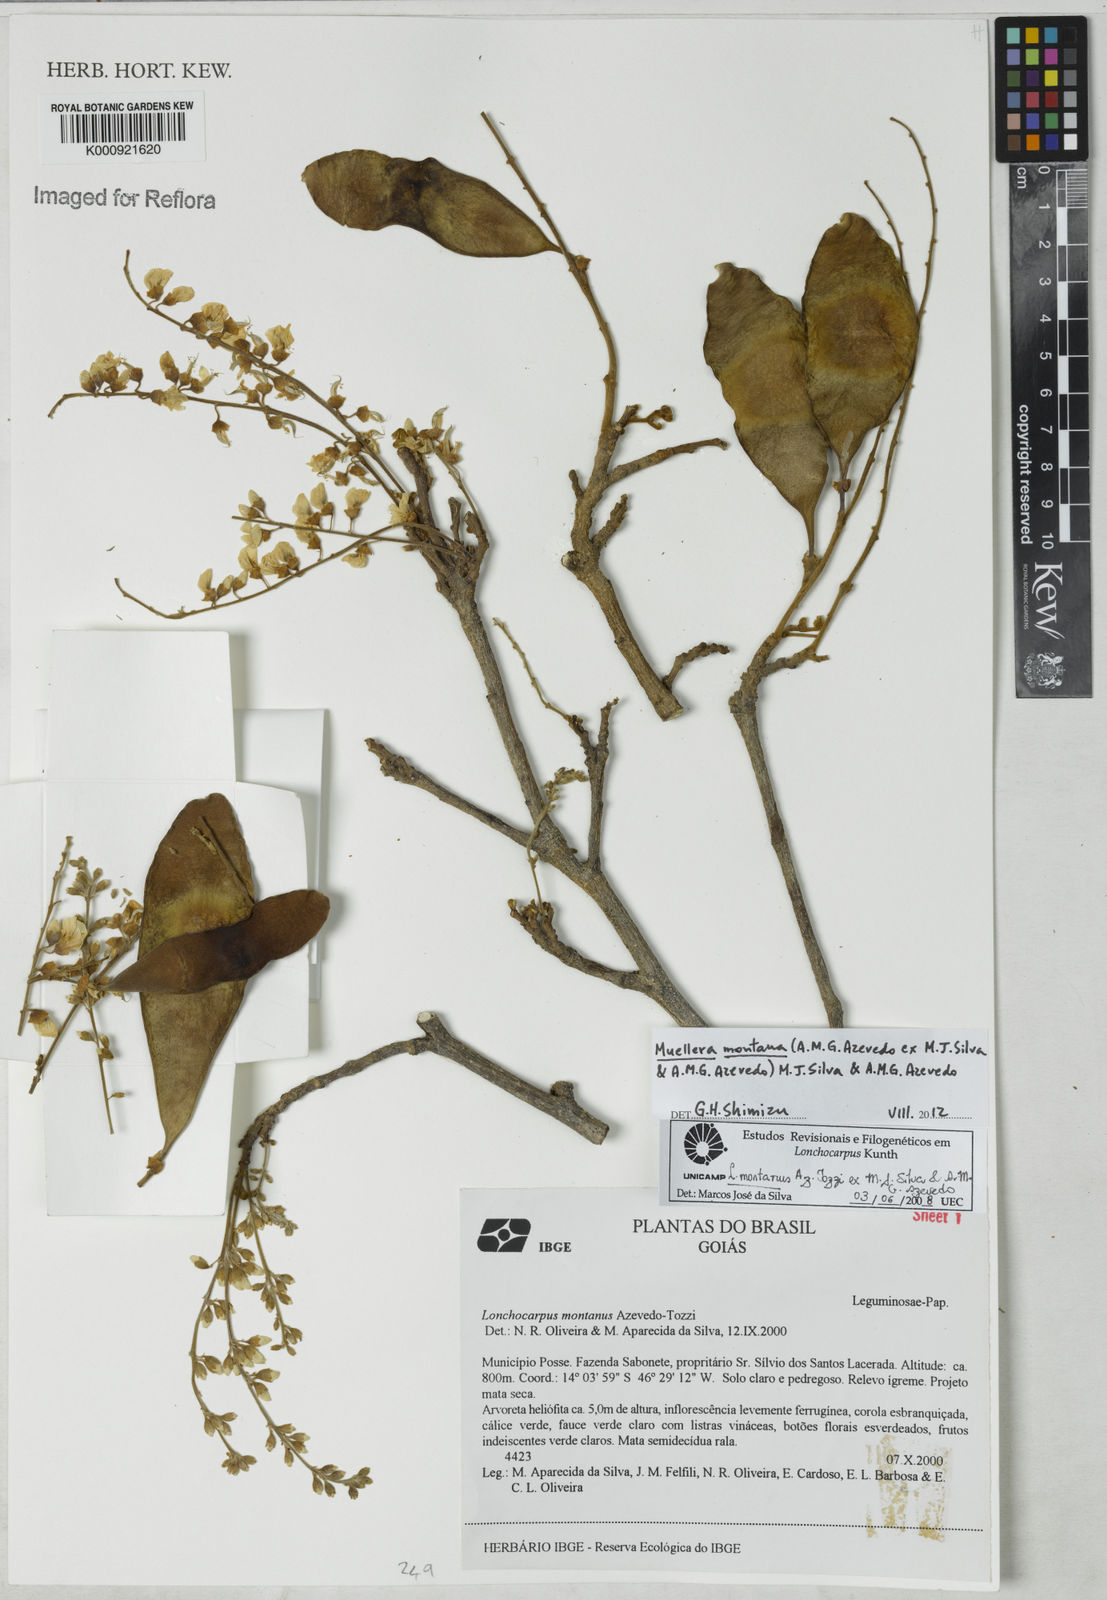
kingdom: Plantae
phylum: Tracheophyta
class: Magnoliopsida
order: Fabales
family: Fabaceae
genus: Muellera
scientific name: Muellera montana
